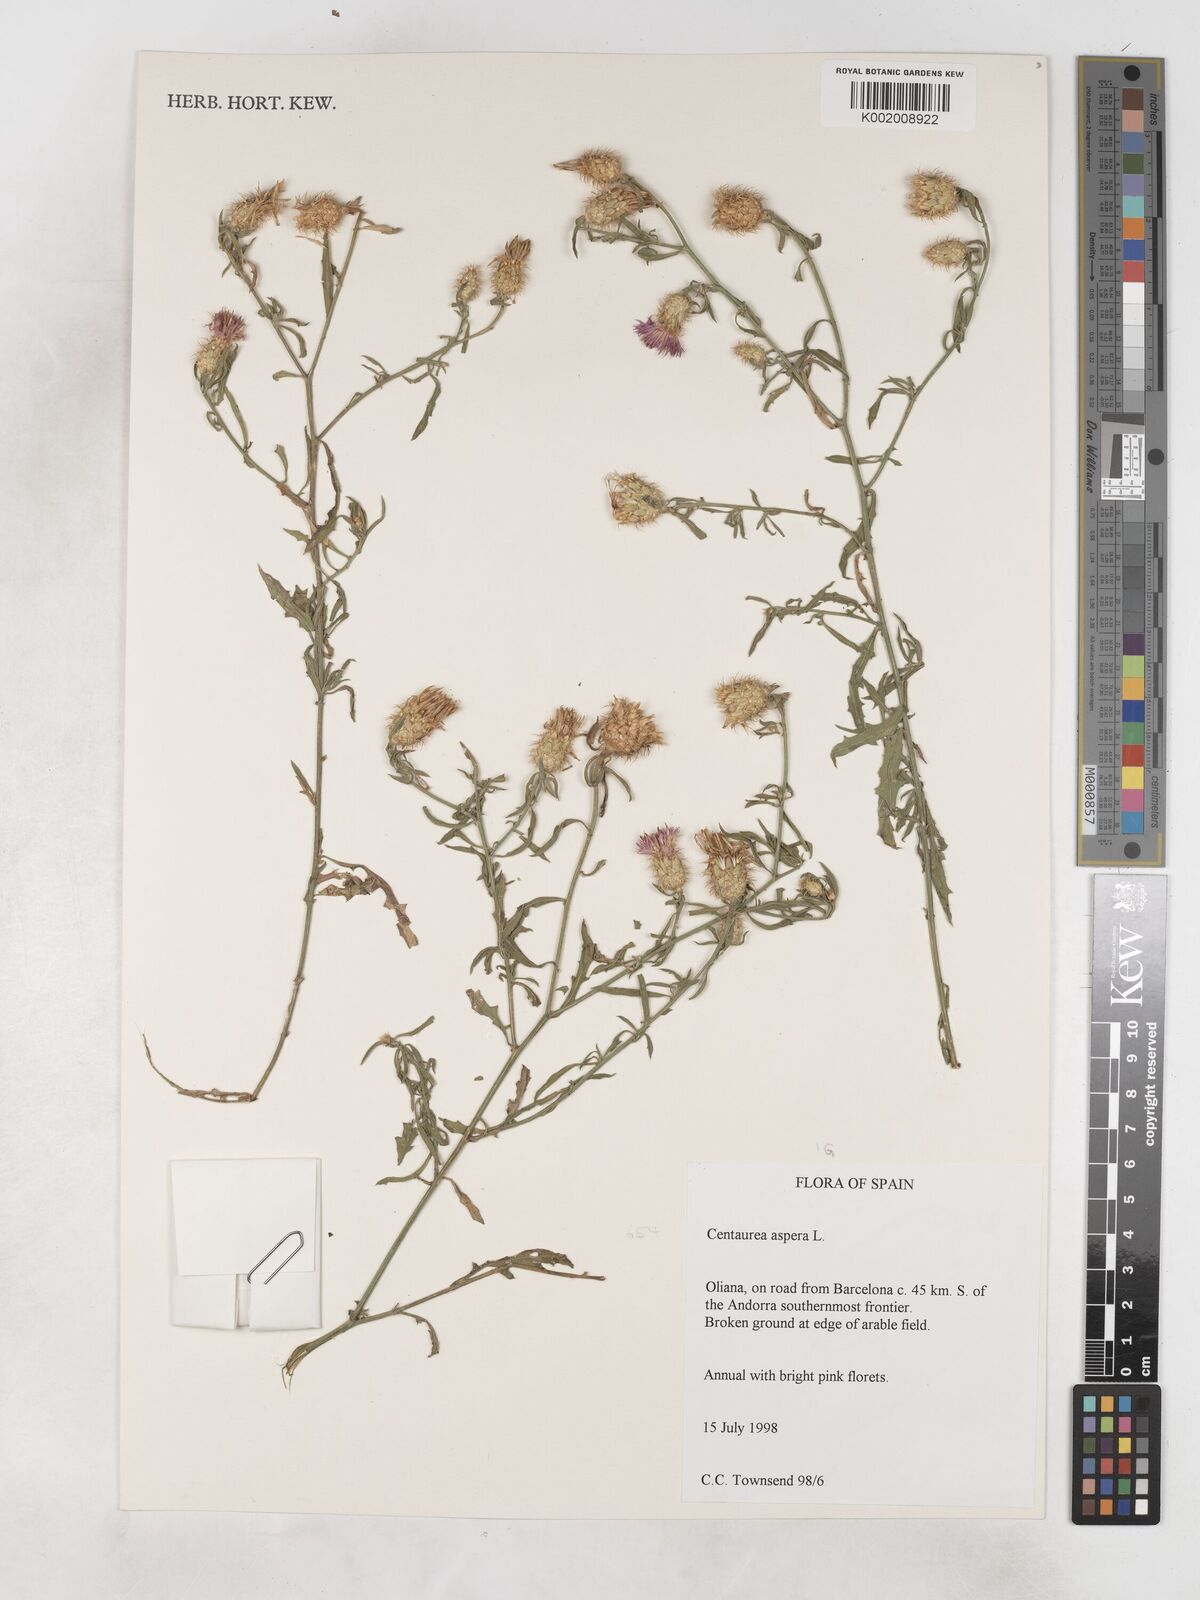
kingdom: Plantae
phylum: Tracheophyta
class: Magnoliopsida
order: Asterales
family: Asteraceae
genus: Centaurea
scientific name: Centaurea aspera
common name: Rough star-thistle
